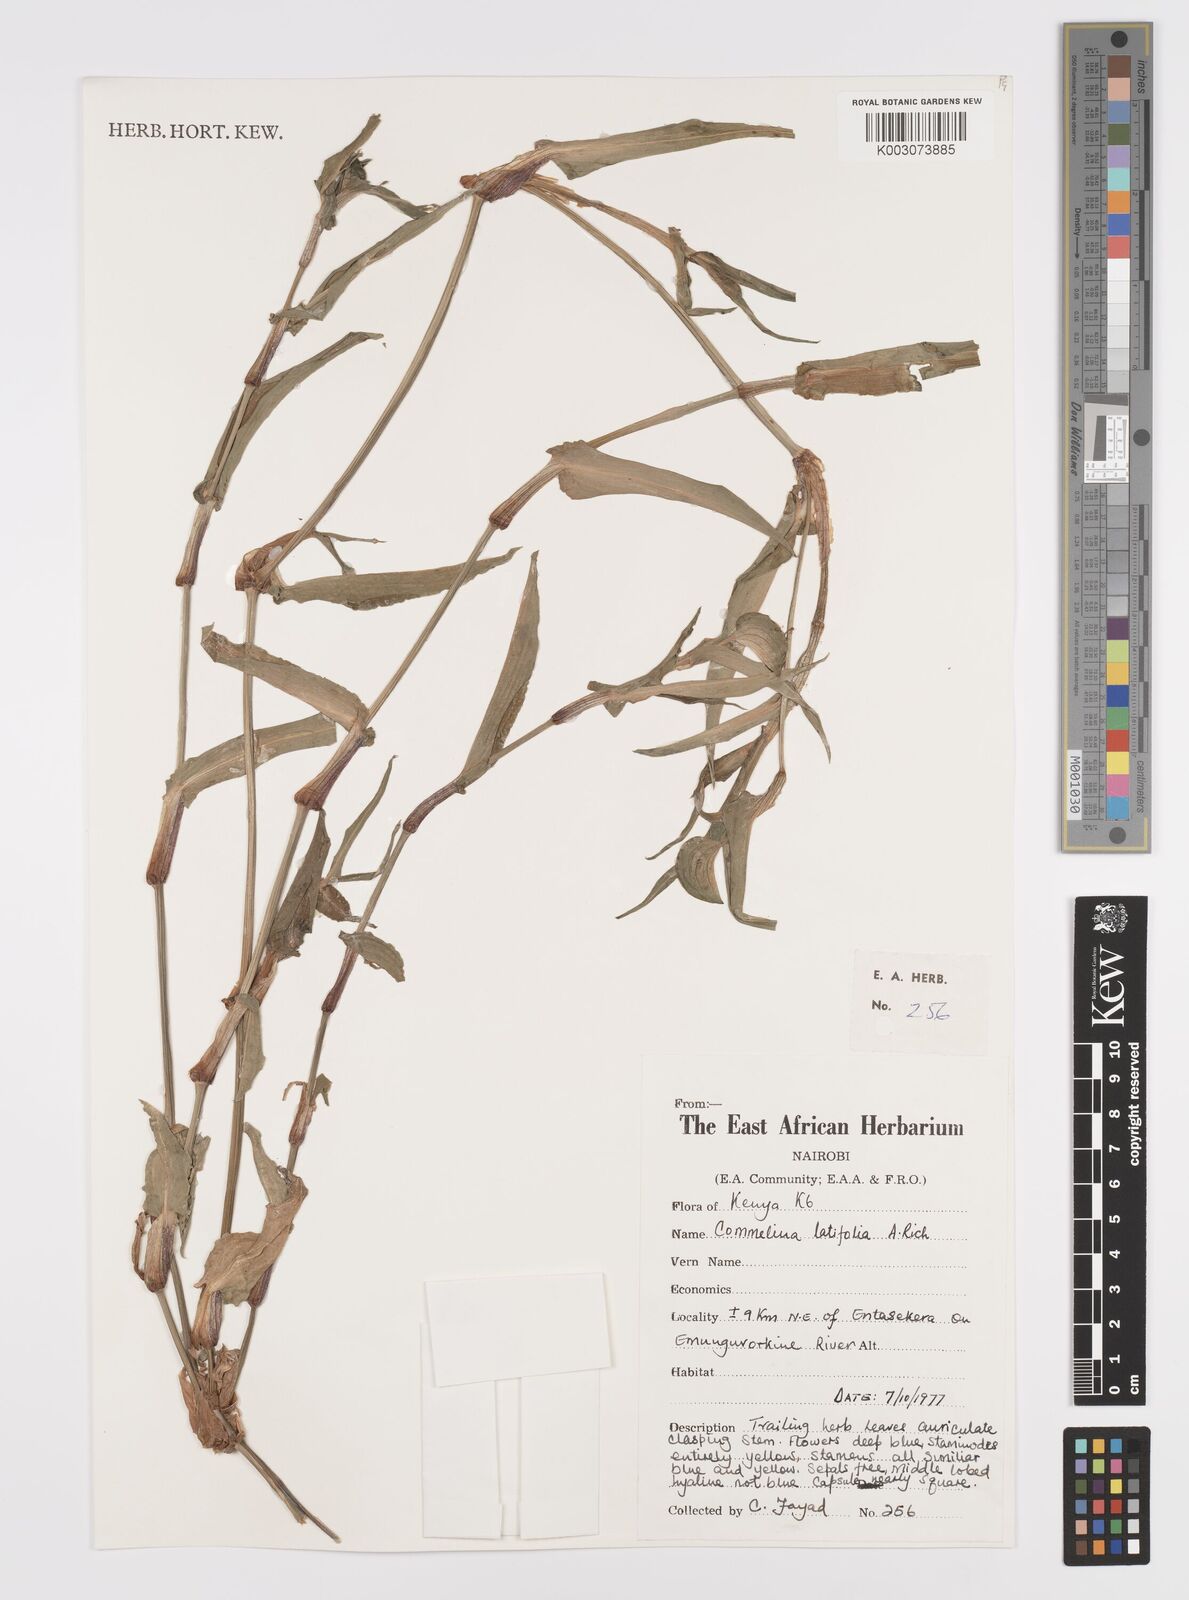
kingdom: Plantae
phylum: Tracheophyta
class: Liliopsida
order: Commelinales
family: Commelinaceae
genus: Commelina
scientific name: Commelina latifolia
